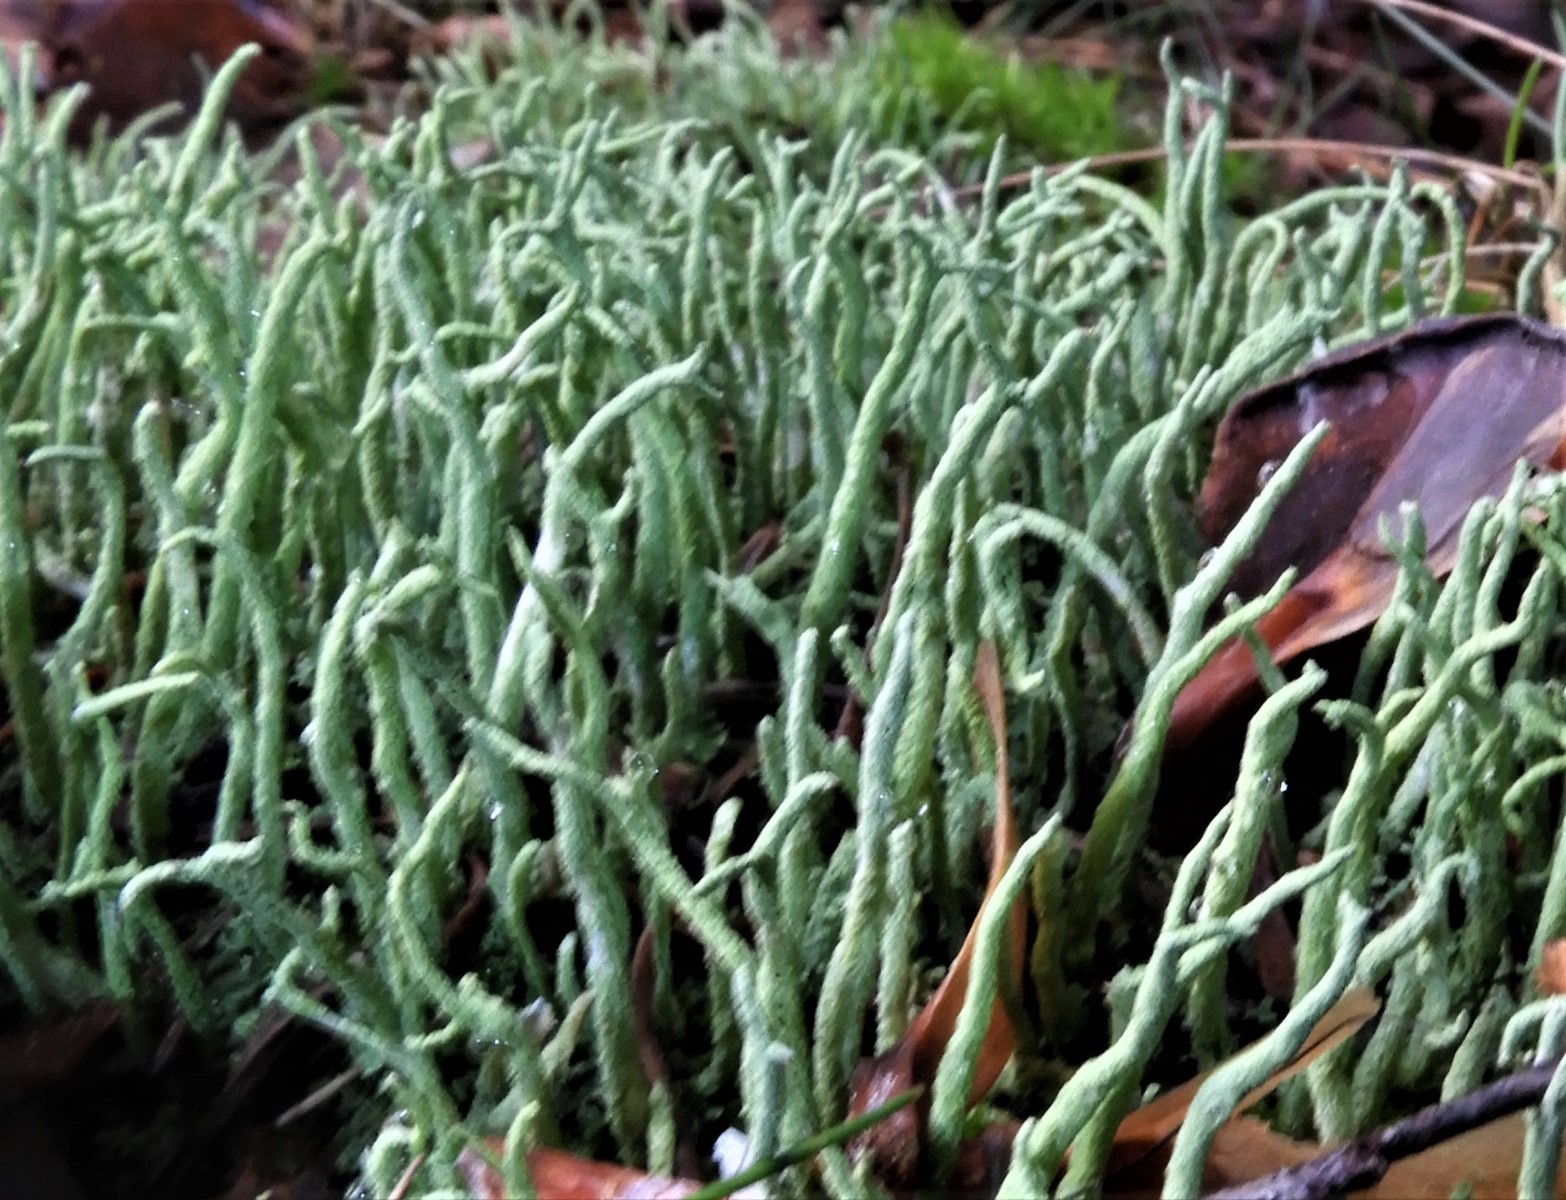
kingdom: Fungi
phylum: Ascomycota
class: Lecanoromycetes
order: Lecanorales
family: Cladoniaceae
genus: Cladonia
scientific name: Cladonia subulata
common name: spids bægerlav
